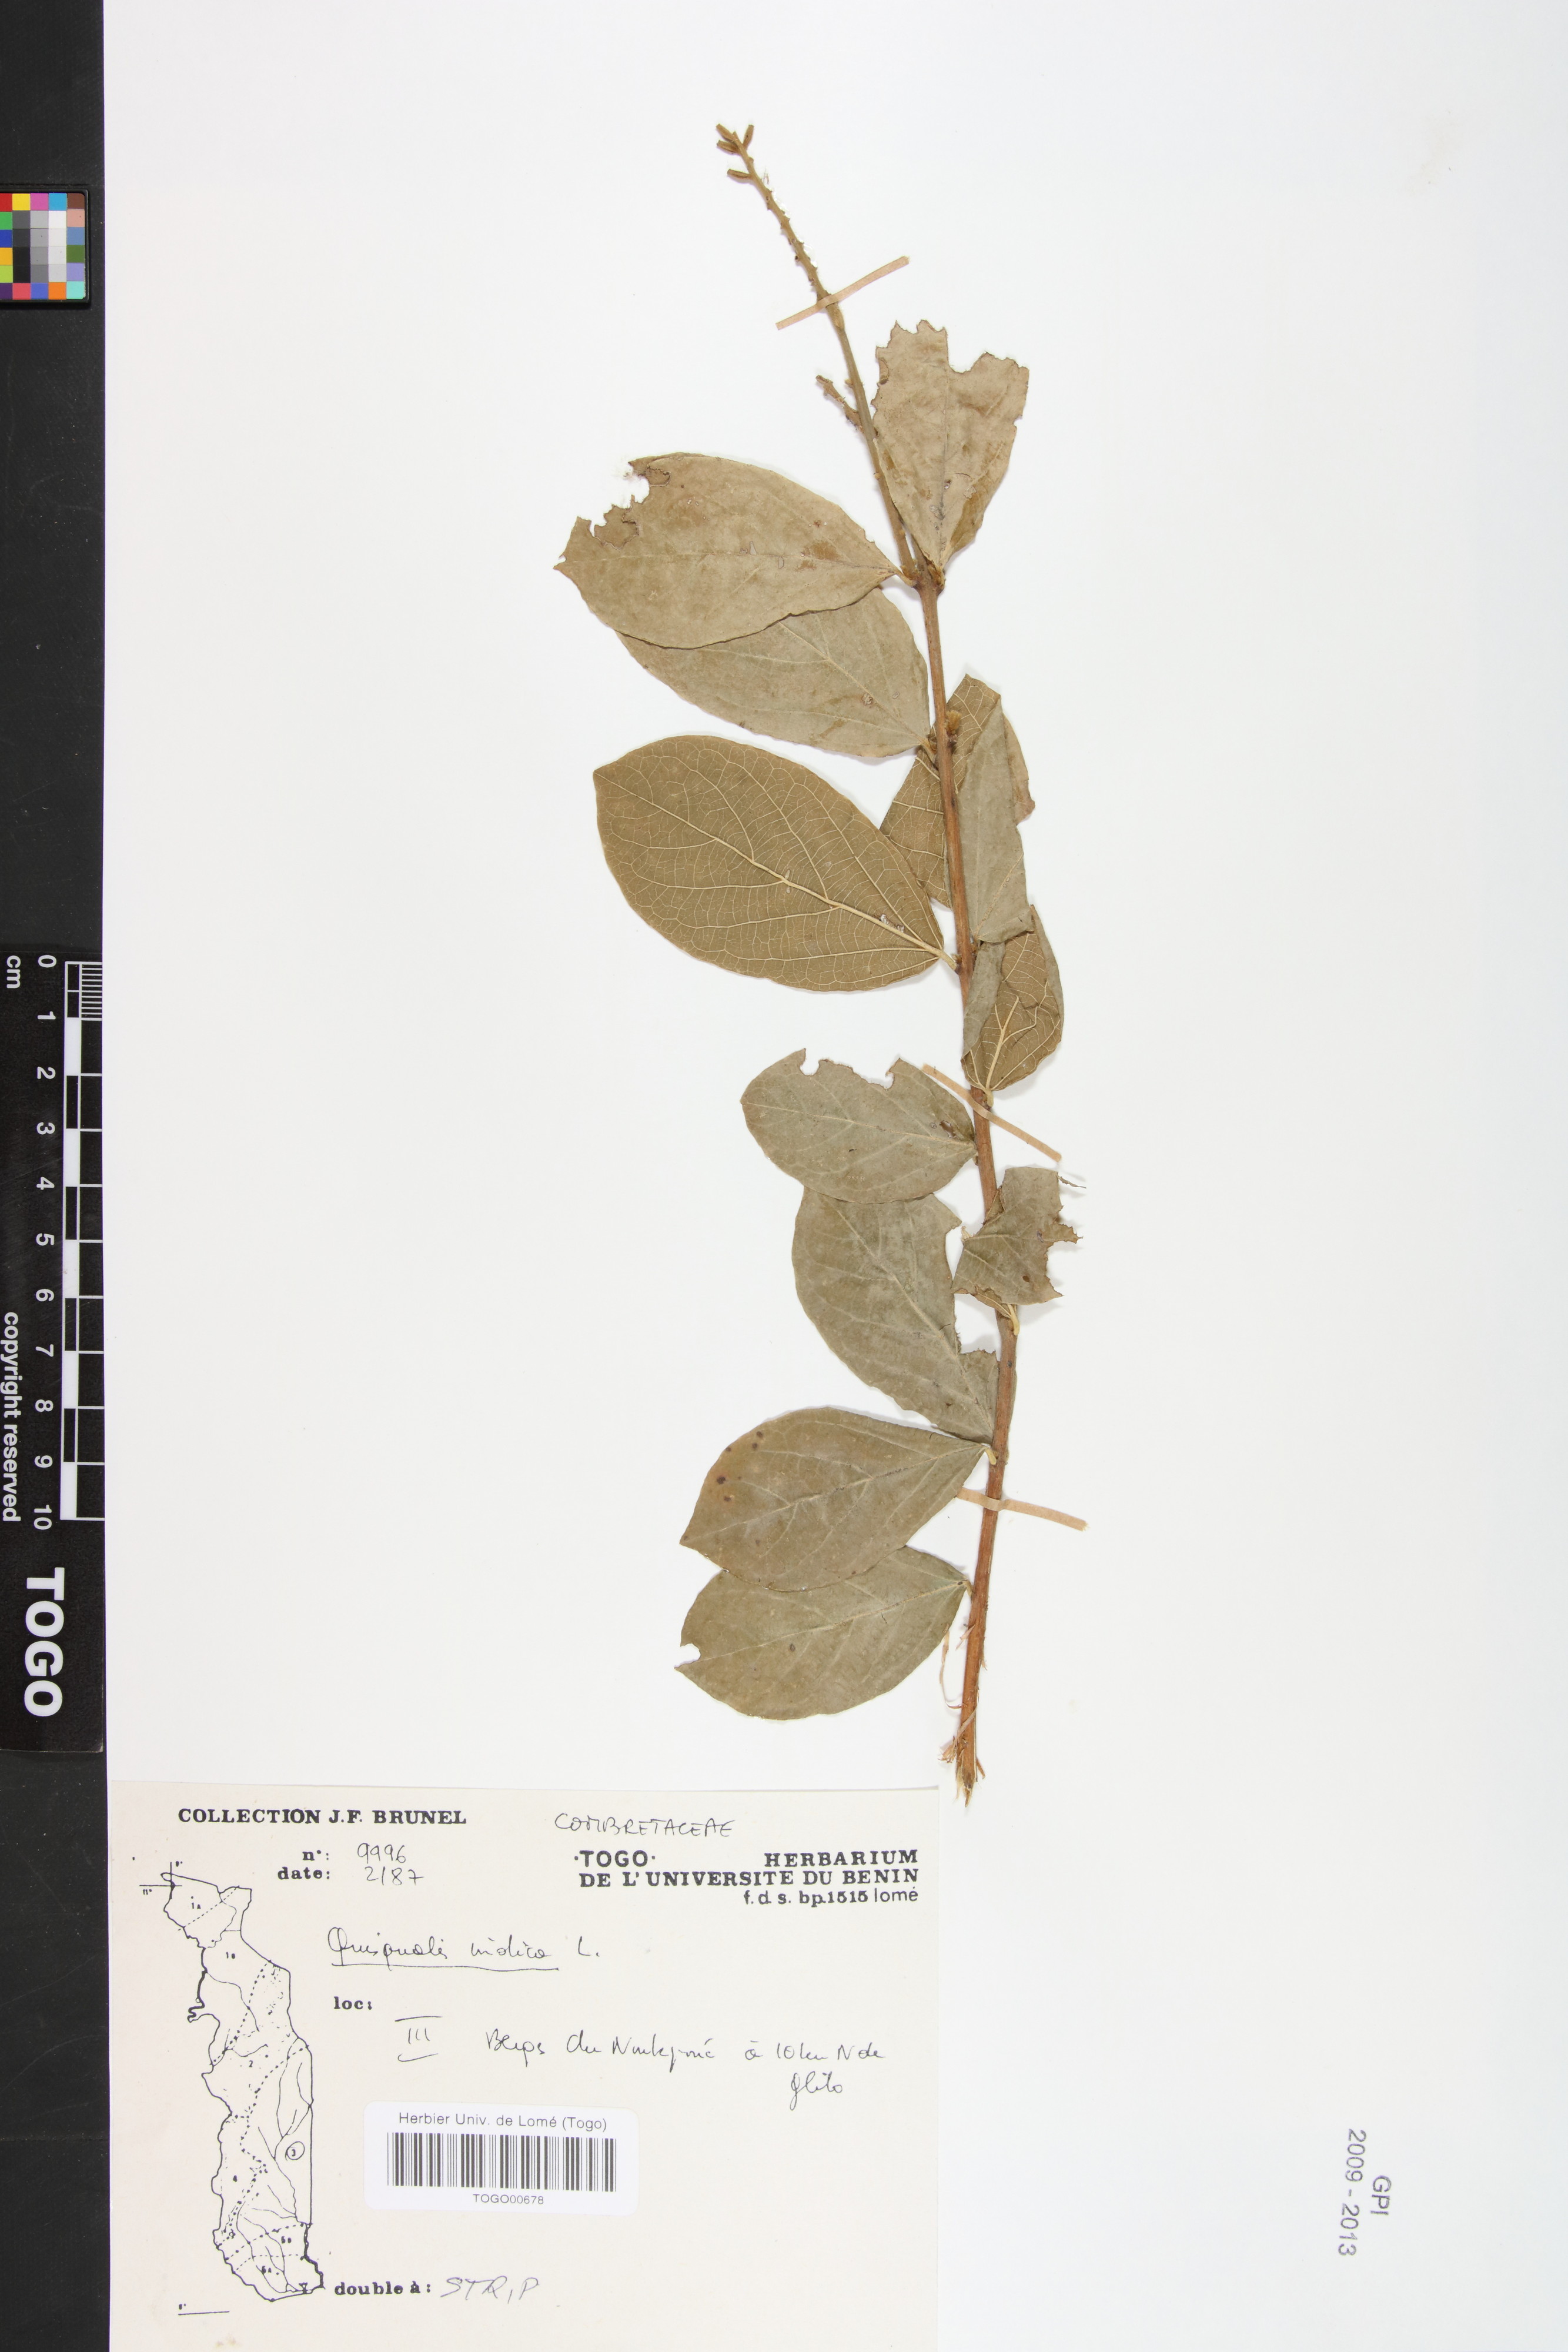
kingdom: Plantae
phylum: Tracheophyta
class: Magnoliopsida
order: Myrtales
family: Combretaceae
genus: Combretum
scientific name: Combretum indicum
